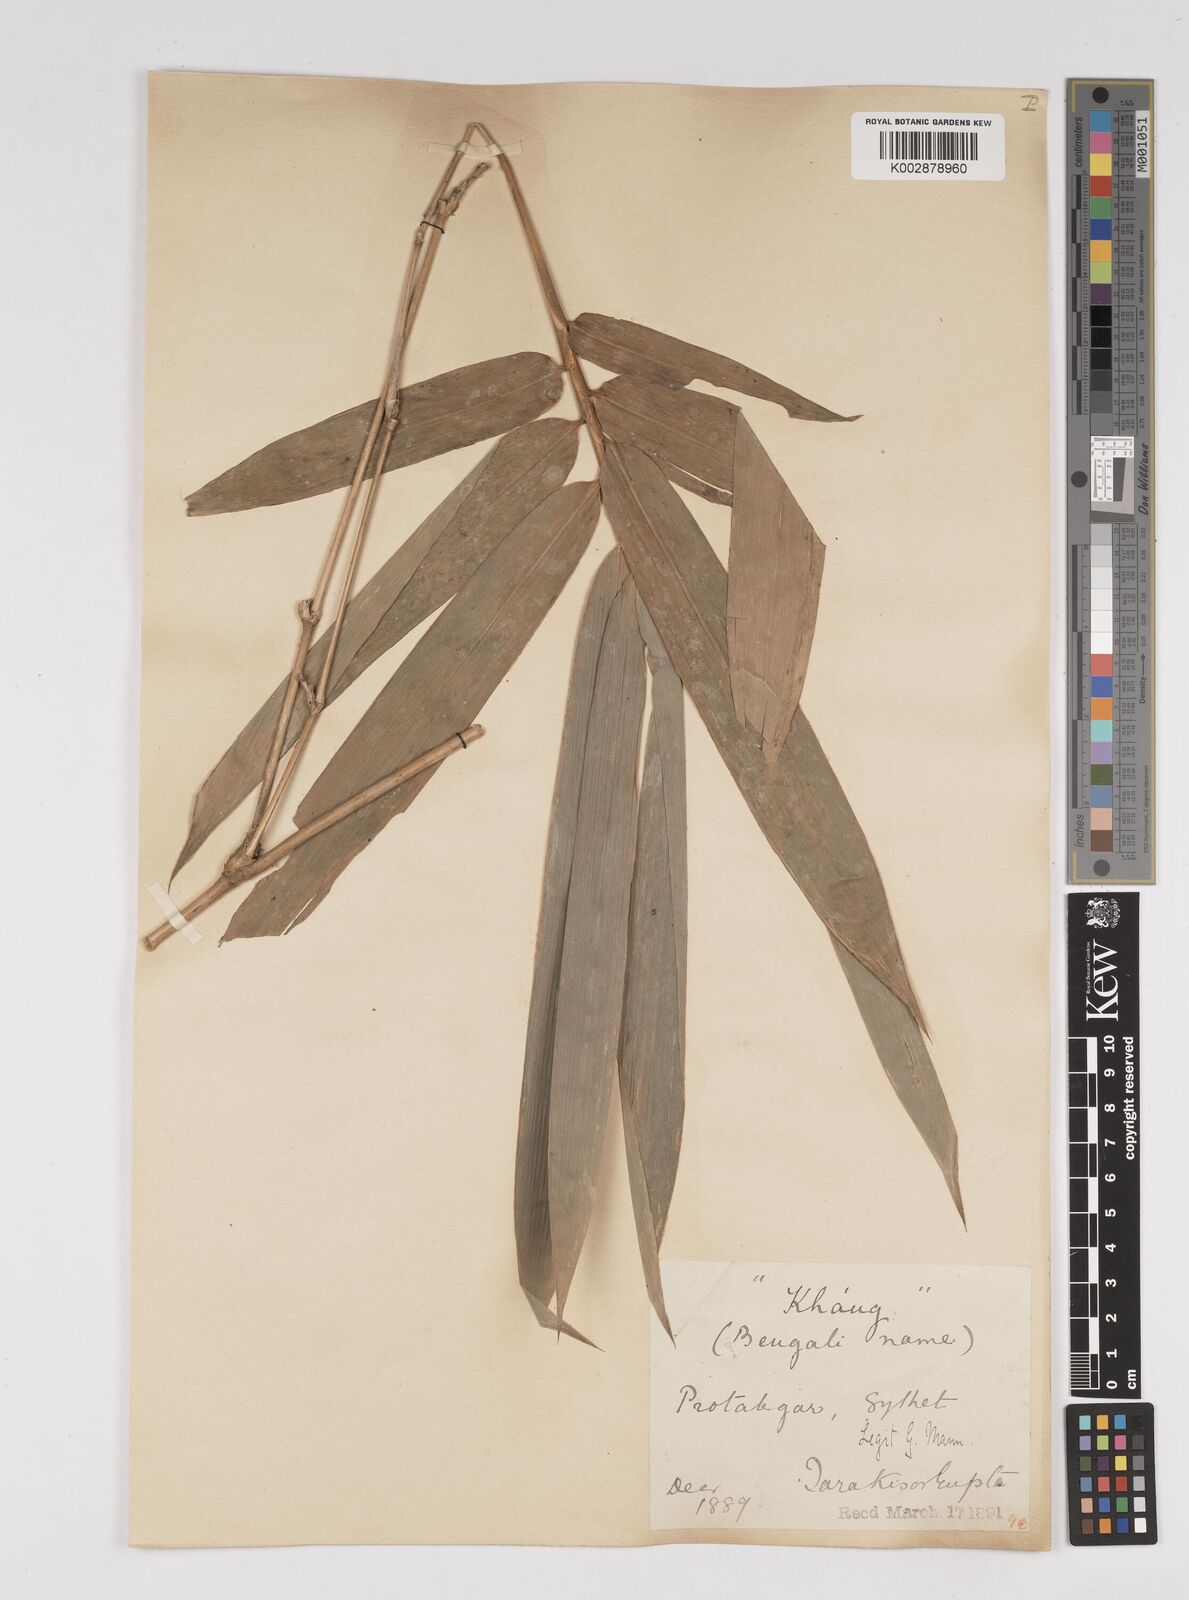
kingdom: Plantae
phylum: Tracheophyta
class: Liliopsida
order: Poales
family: Poaceae
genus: Dendrocalamus
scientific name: Dendrocalamus longispathus
